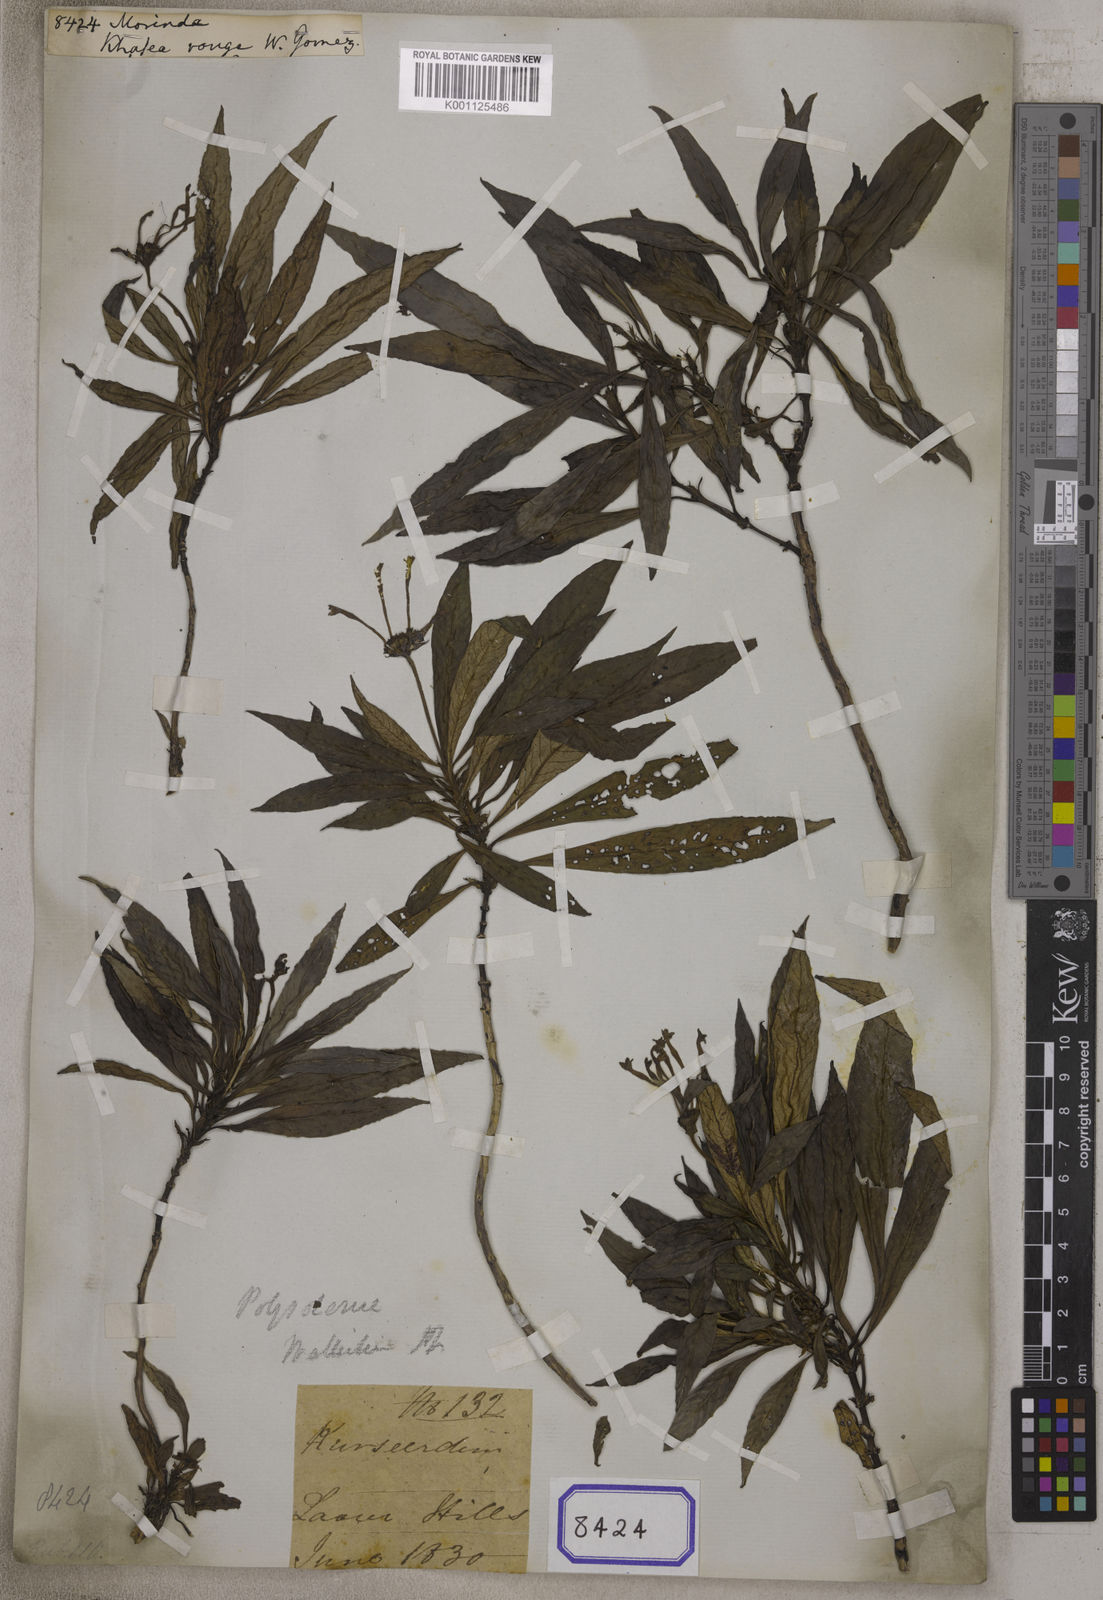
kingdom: Plantae
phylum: Tracheophyta
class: Magnoliopsida
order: Gentianales
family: Rubiaceae
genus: Morinda
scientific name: Morinda
